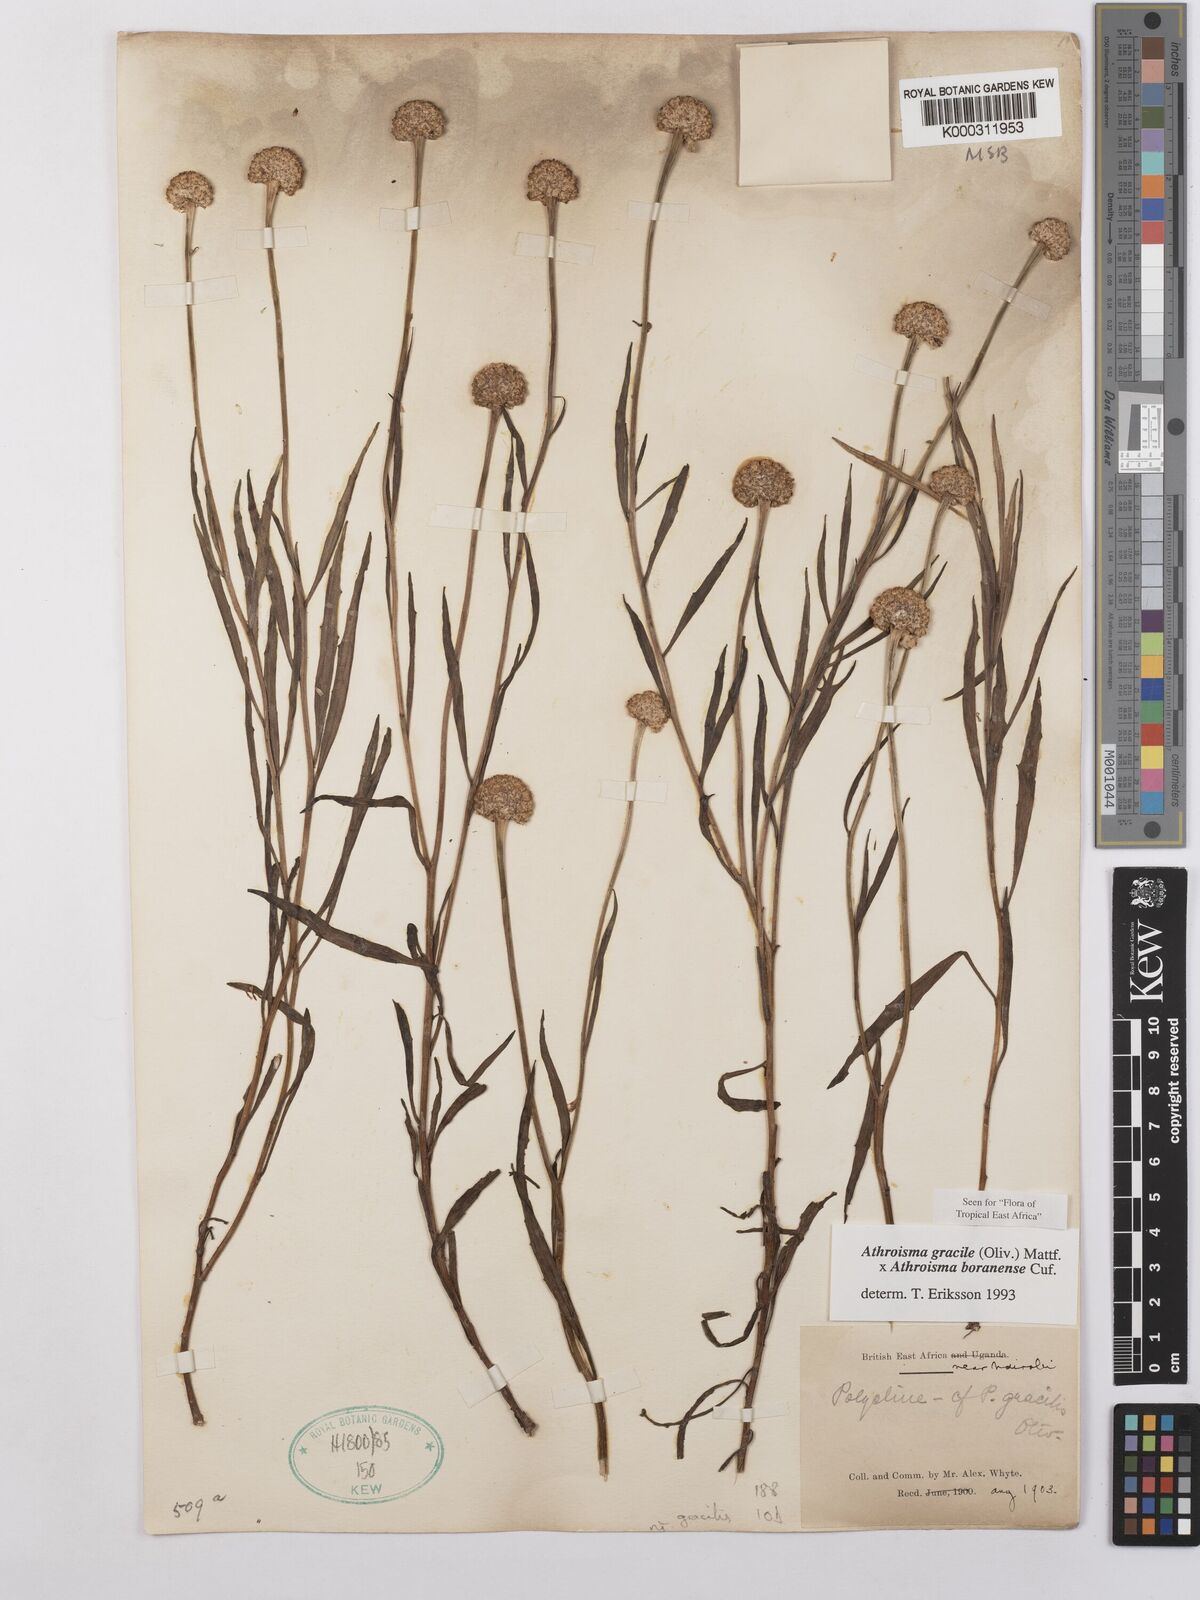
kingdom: Plantae
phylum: Tracheophyta
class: Magnoliopsida
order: Asterales
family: Asteraceae
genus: Athroisma
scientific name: Athroisma
